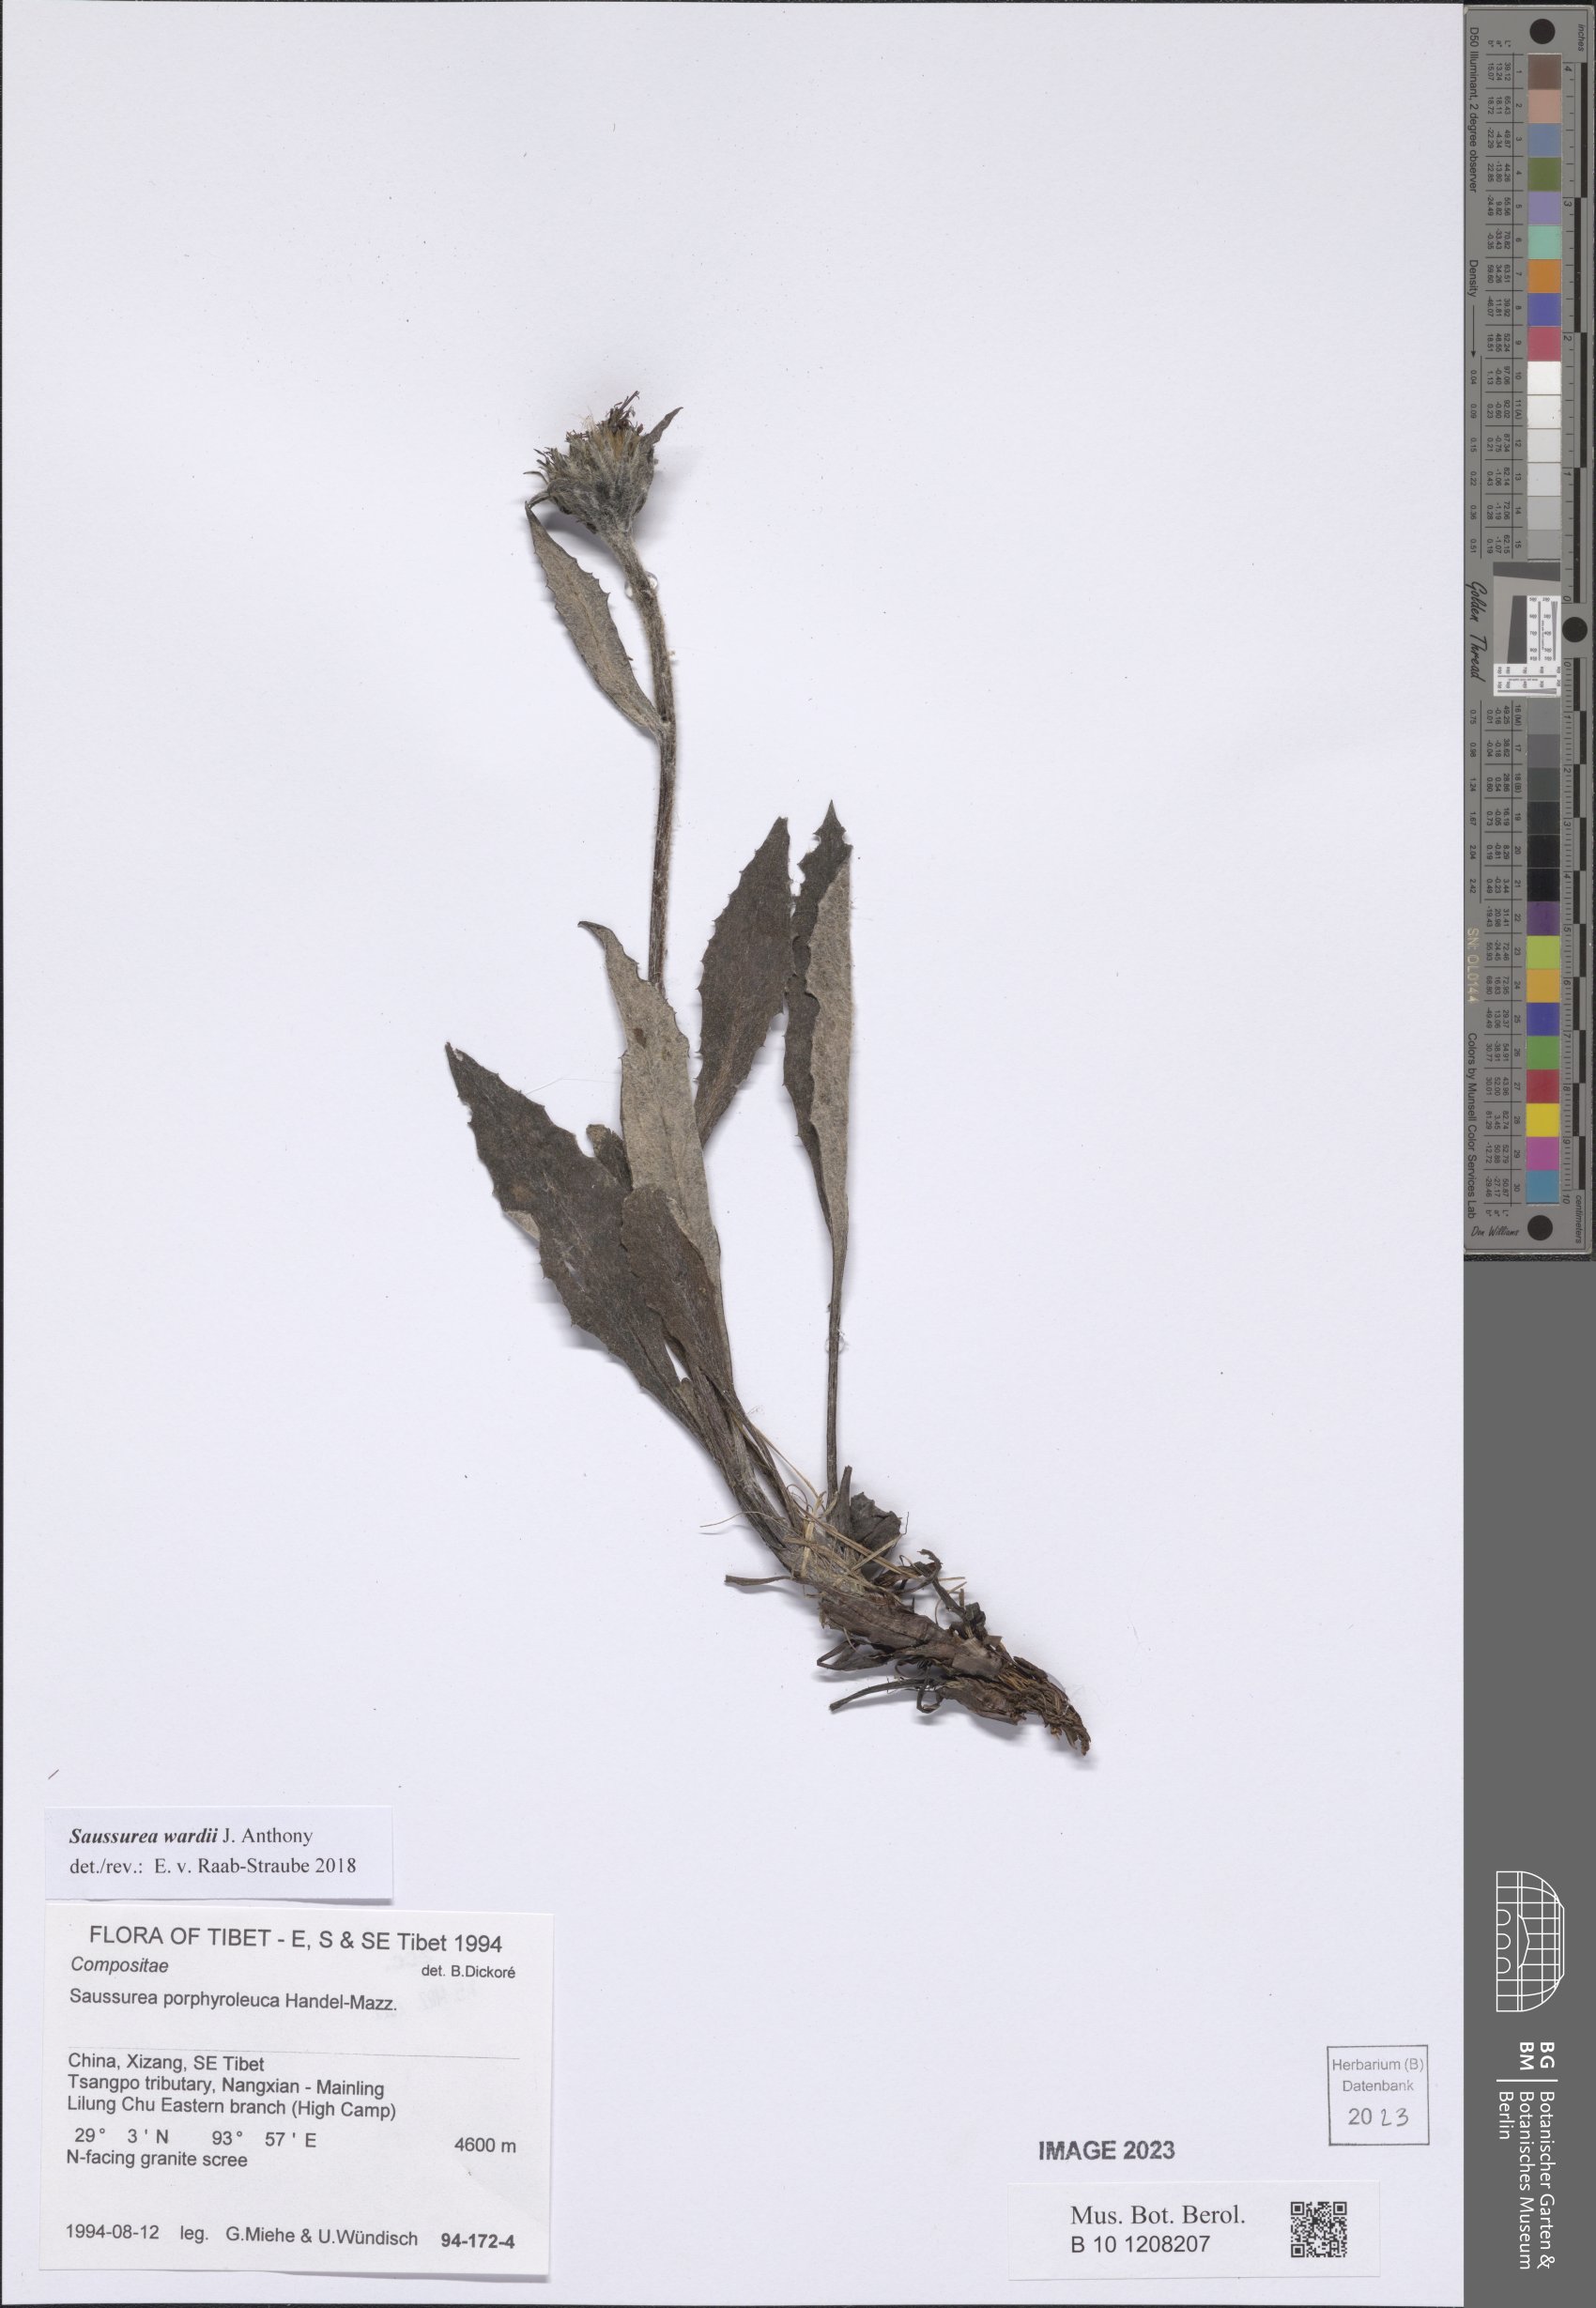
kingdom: Plantae
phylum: Tracheophyta
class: Magnoliopsida
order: Asterales
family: Asteraceae
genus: Saussurea
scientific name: Saussurea wardii
